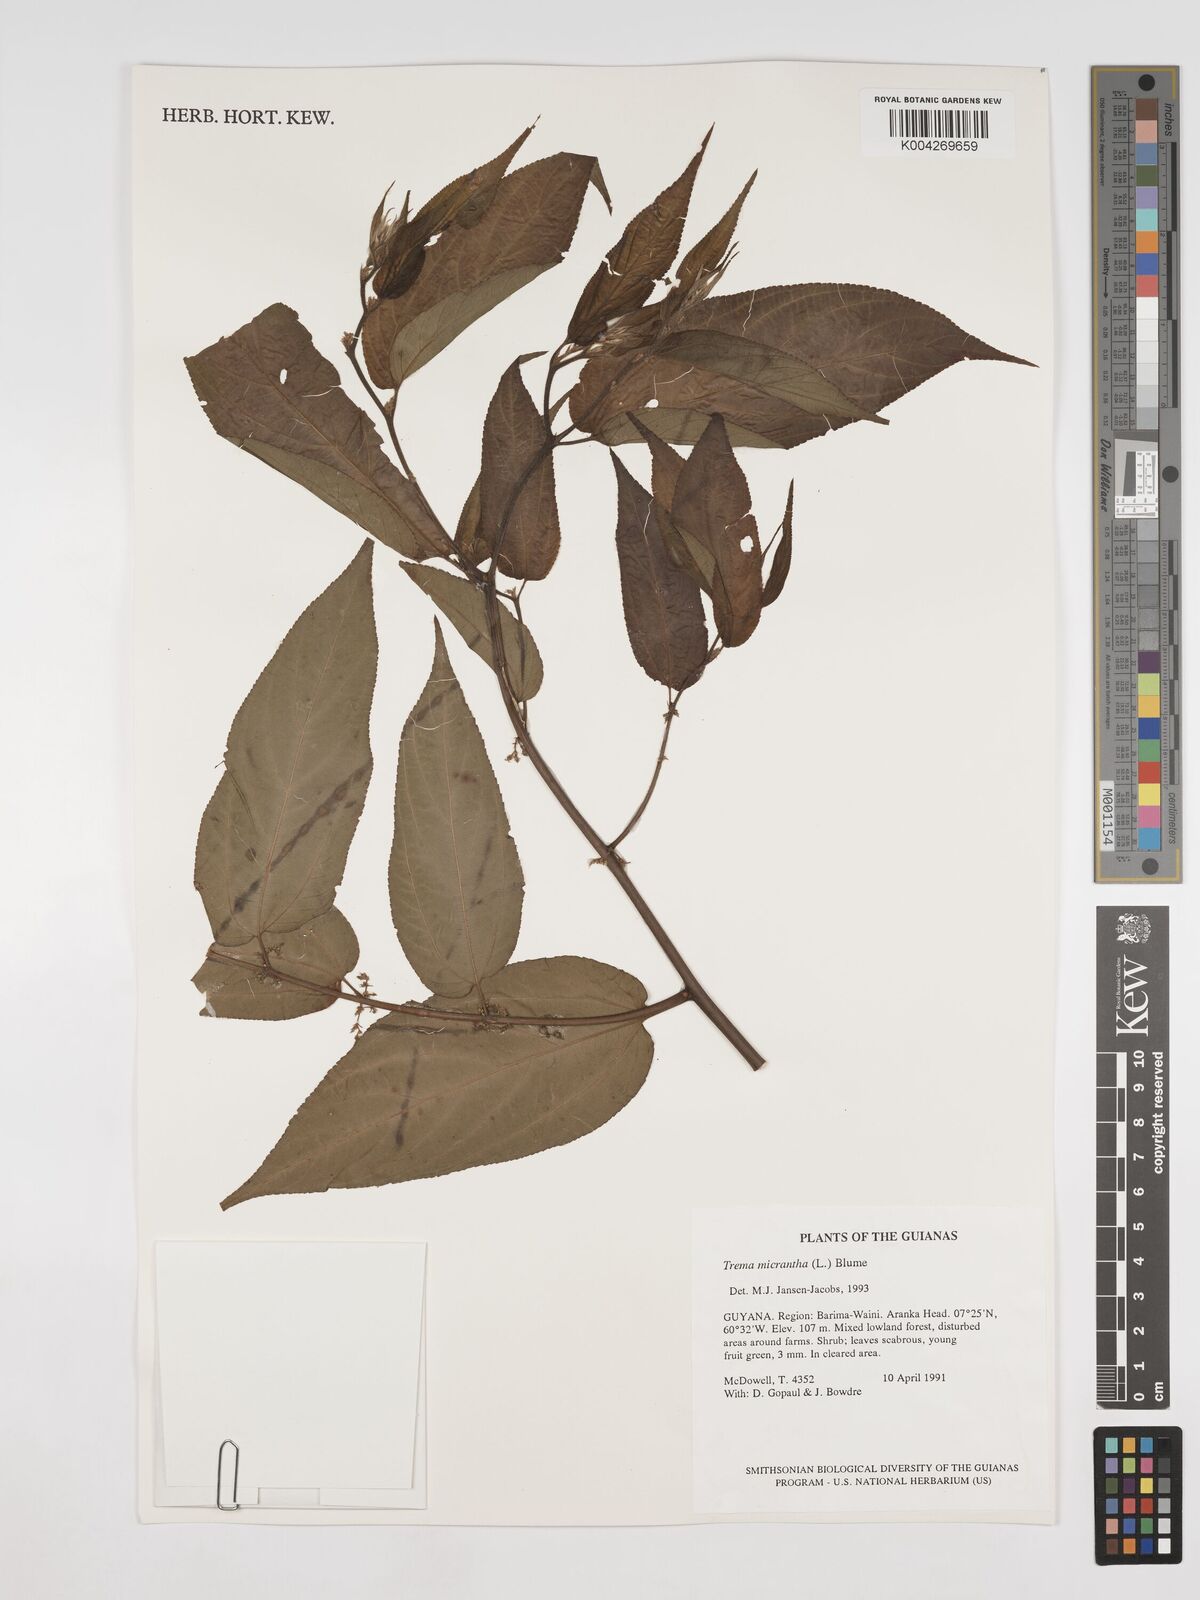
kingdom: Plantae
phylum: Tracheophyta
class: Magnoliopsida
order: Rosales
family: Cannabaceae
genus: Trema
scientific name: Trema micranthum
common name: Jamaican nettletree
